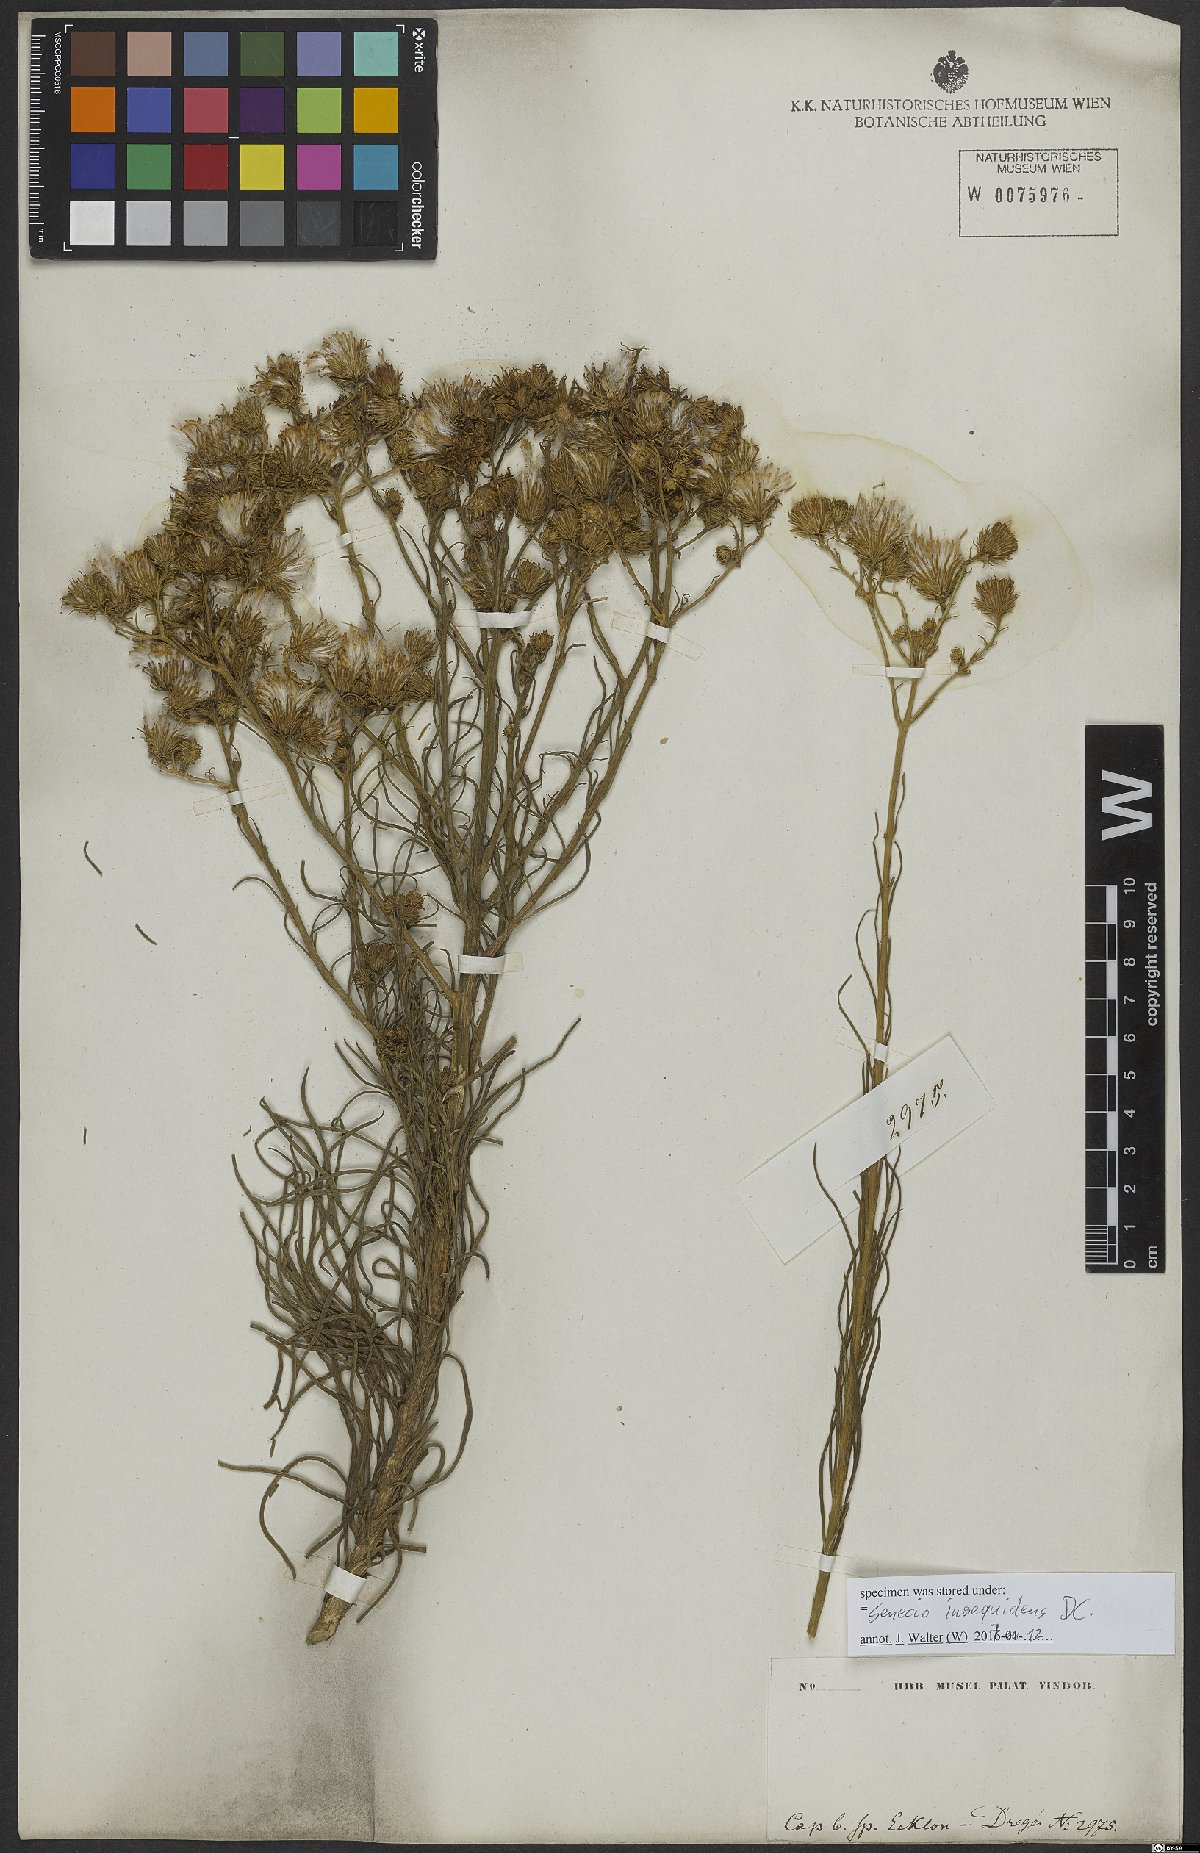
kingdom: Plantae
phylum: Tracheophyta
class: Magnoliopsida
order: Asterales
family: Asteraceae
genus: Senecio
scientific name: Senecio inaequidens
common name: Narrow-leaved ragwort
